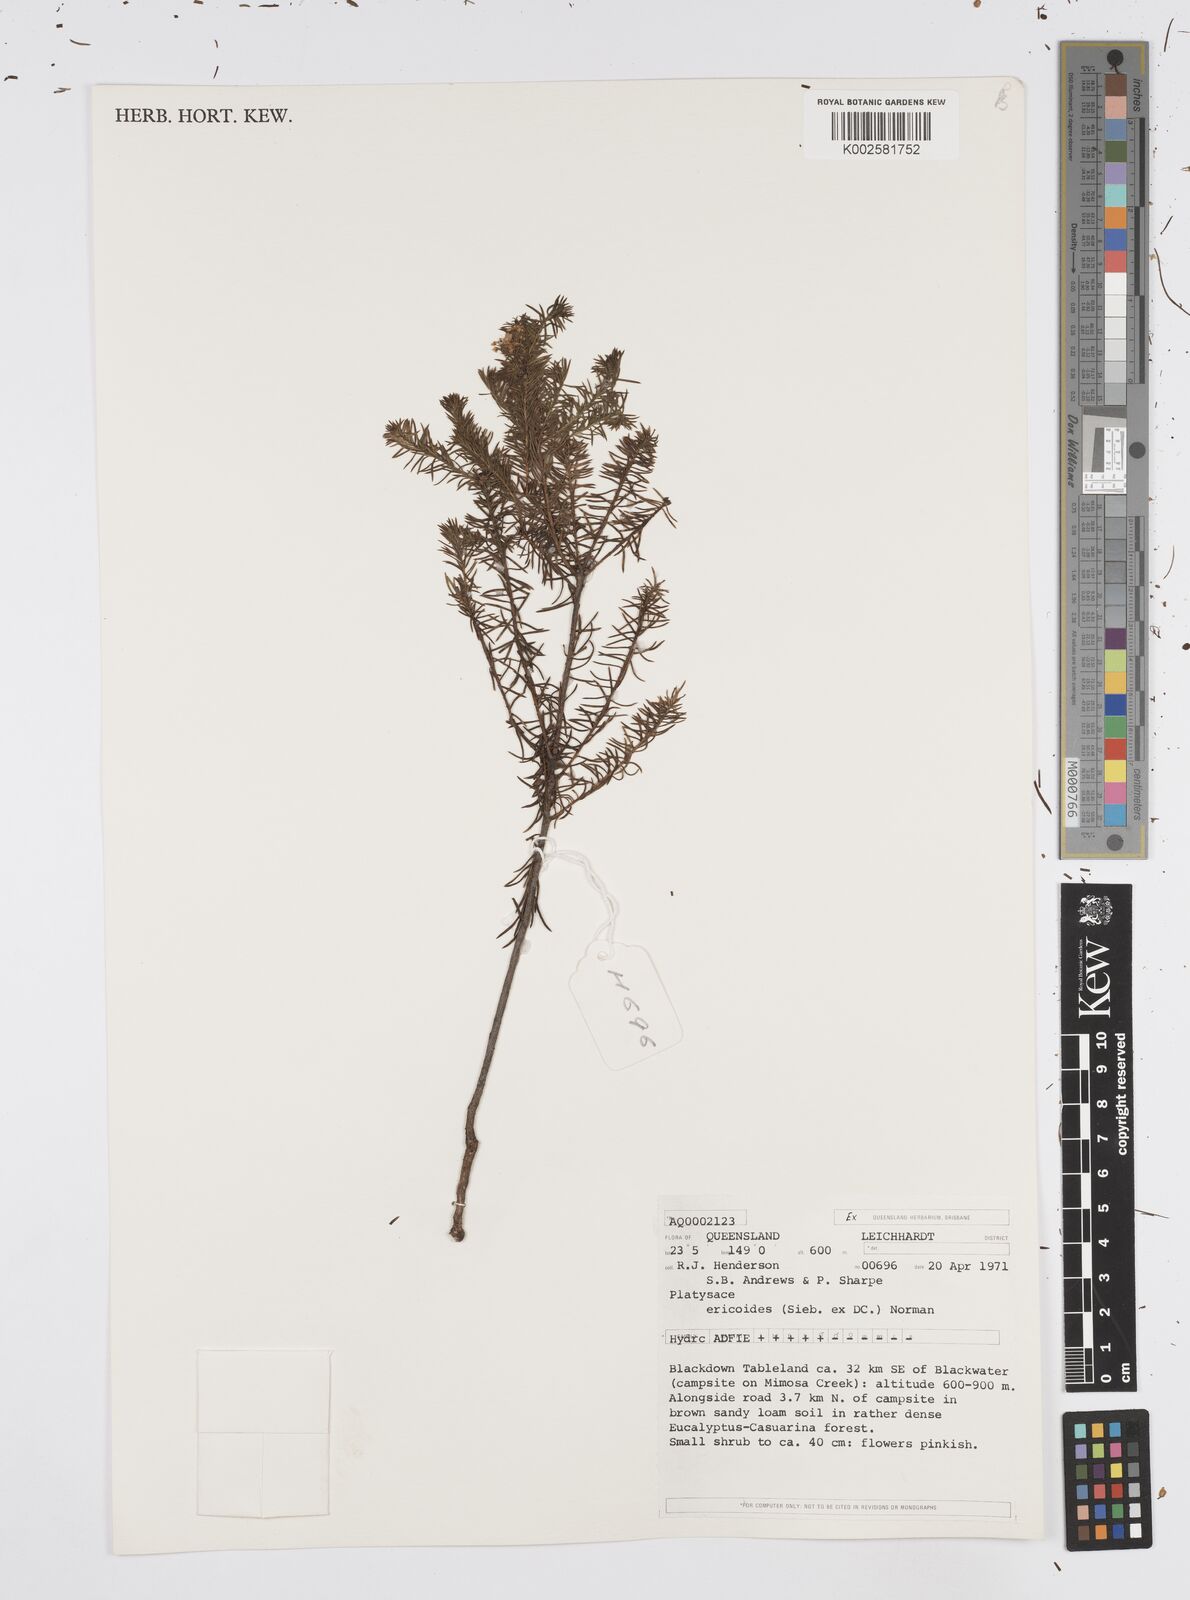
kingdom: Plantae
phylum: Tracheophyta
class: Magnoliopsida
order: Apiales
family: Apiaceae
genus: Platysace
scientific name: Platysace ericoides
